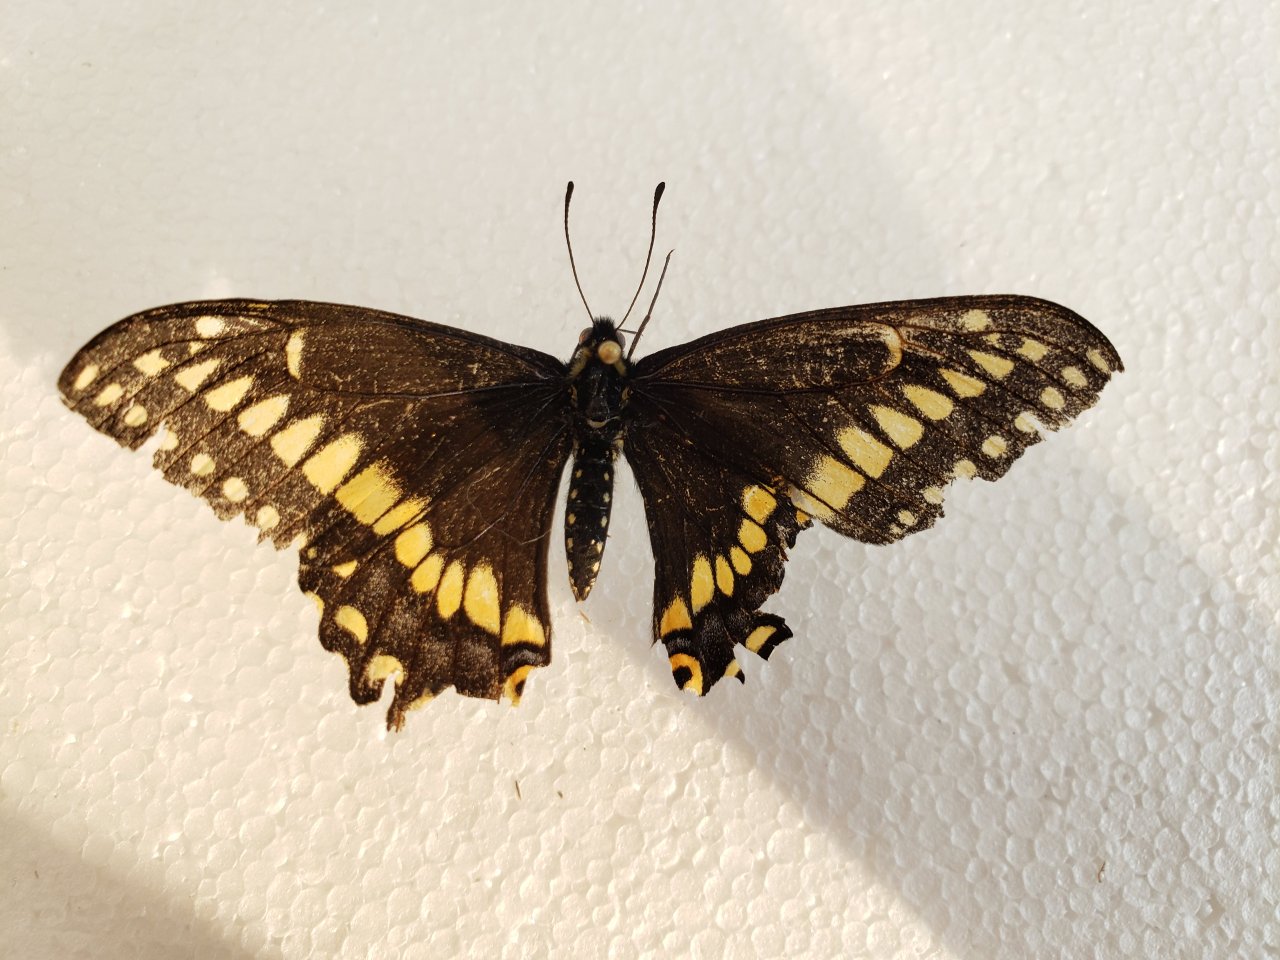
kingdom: Animalia
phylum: Arthropoda
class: Insecta
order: Lepidoptera
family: Papilionidae
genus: Papilio
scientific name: Papilio brevicauda
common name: Short-tailed Swallowtail
